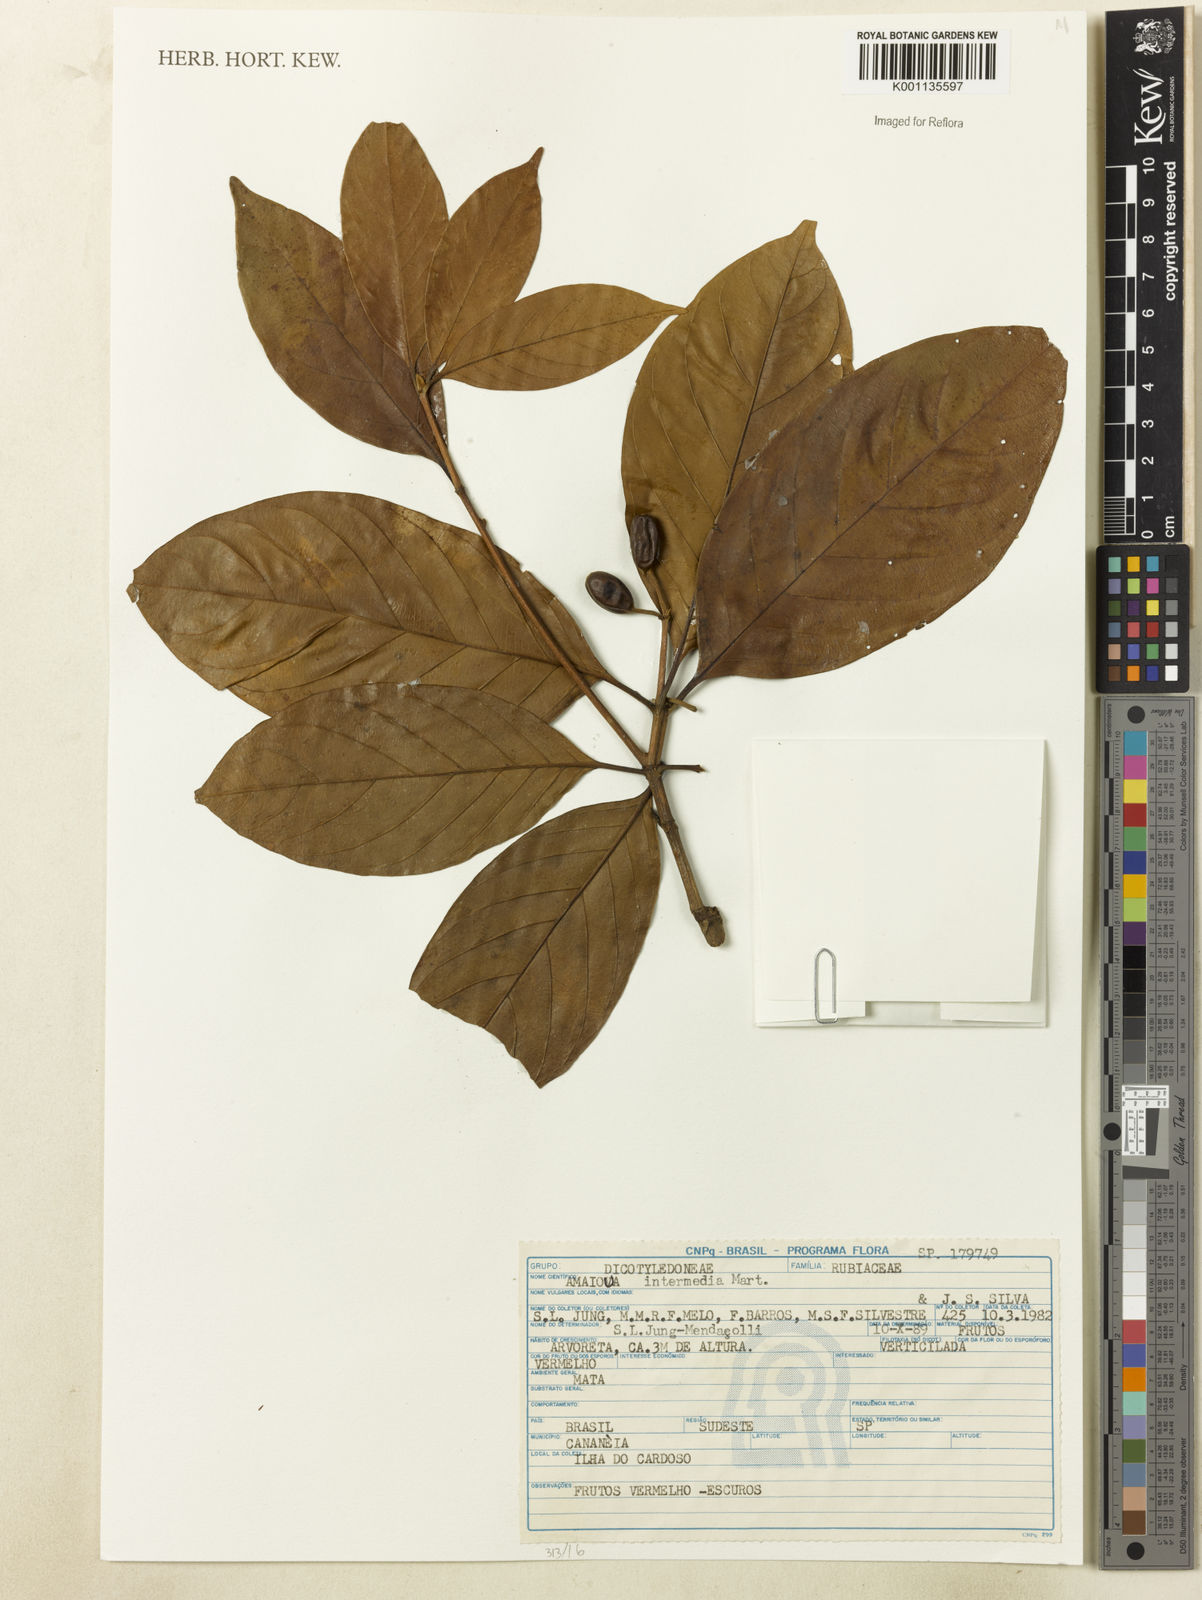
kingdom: Plantae
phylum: Tracheophyta
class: Magnoliopsida
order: Gentianales
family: Rubiaceae
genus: Amaioua
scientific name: Amaioua intermedia
